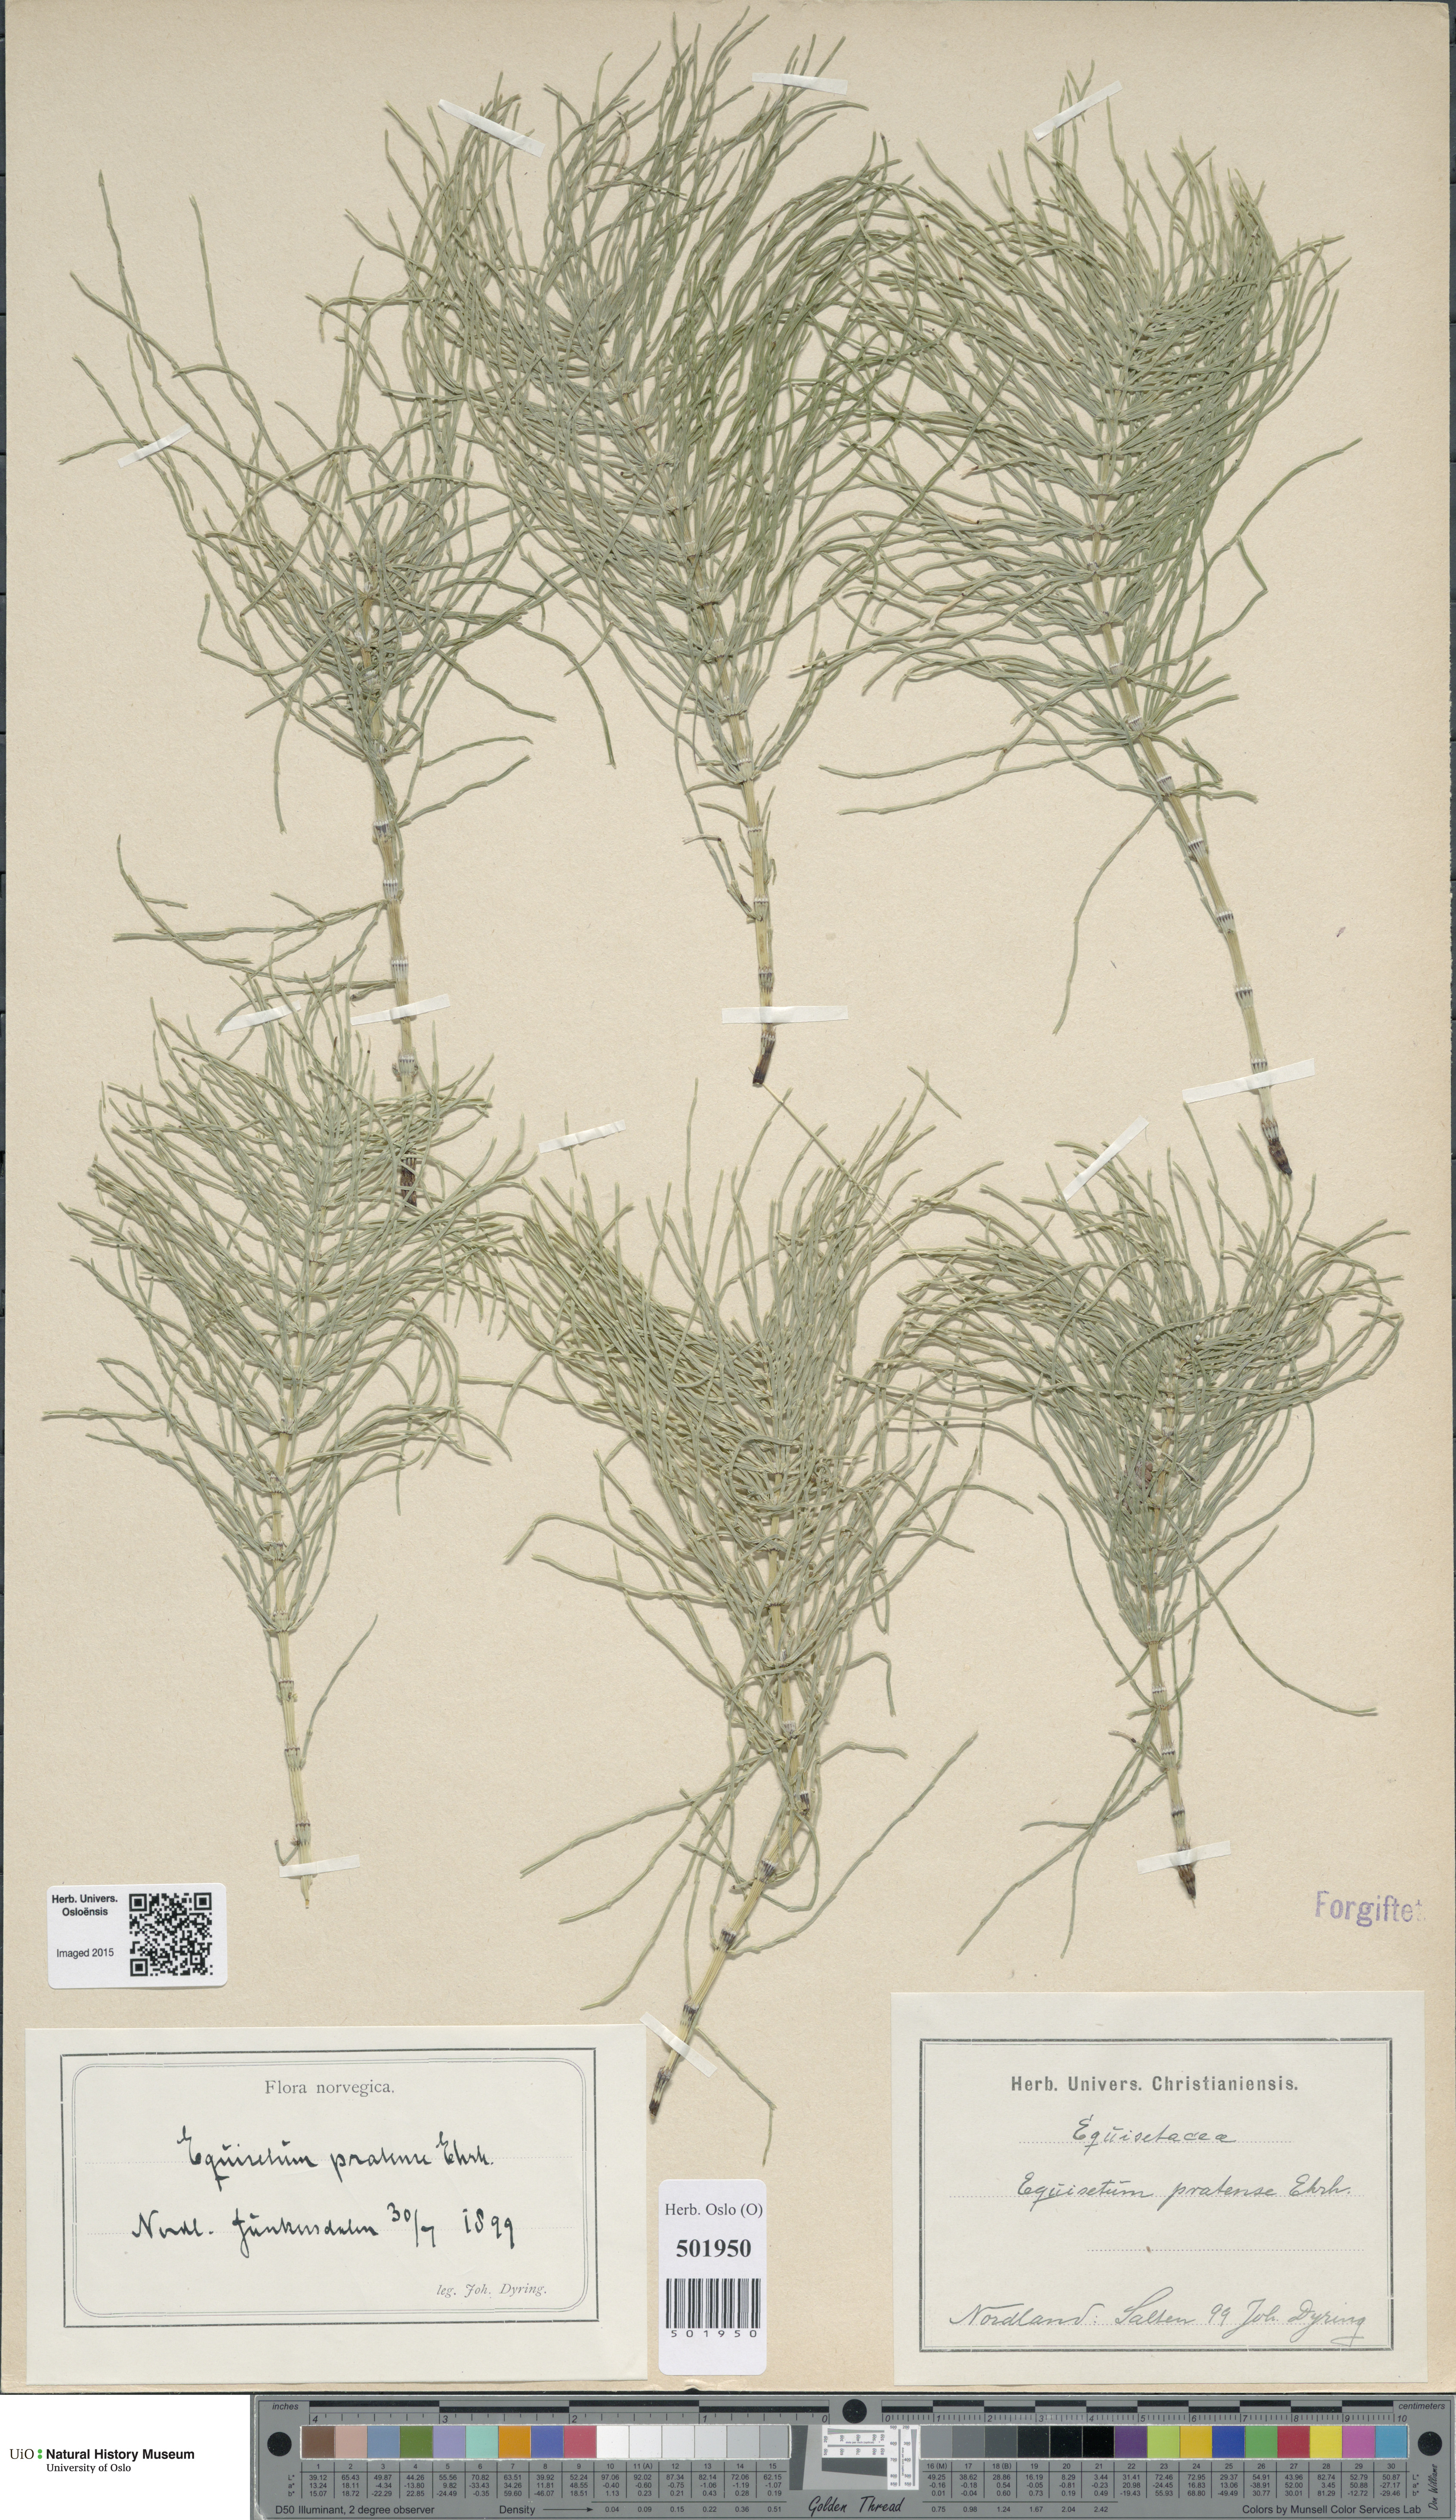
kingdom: Plantae
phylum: Tracheophyta
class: Polypodiopsida
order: Equisetales
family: Equisetaceae
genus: Equisetum
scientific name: Equisetum pratense
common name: Meadow horsetail
